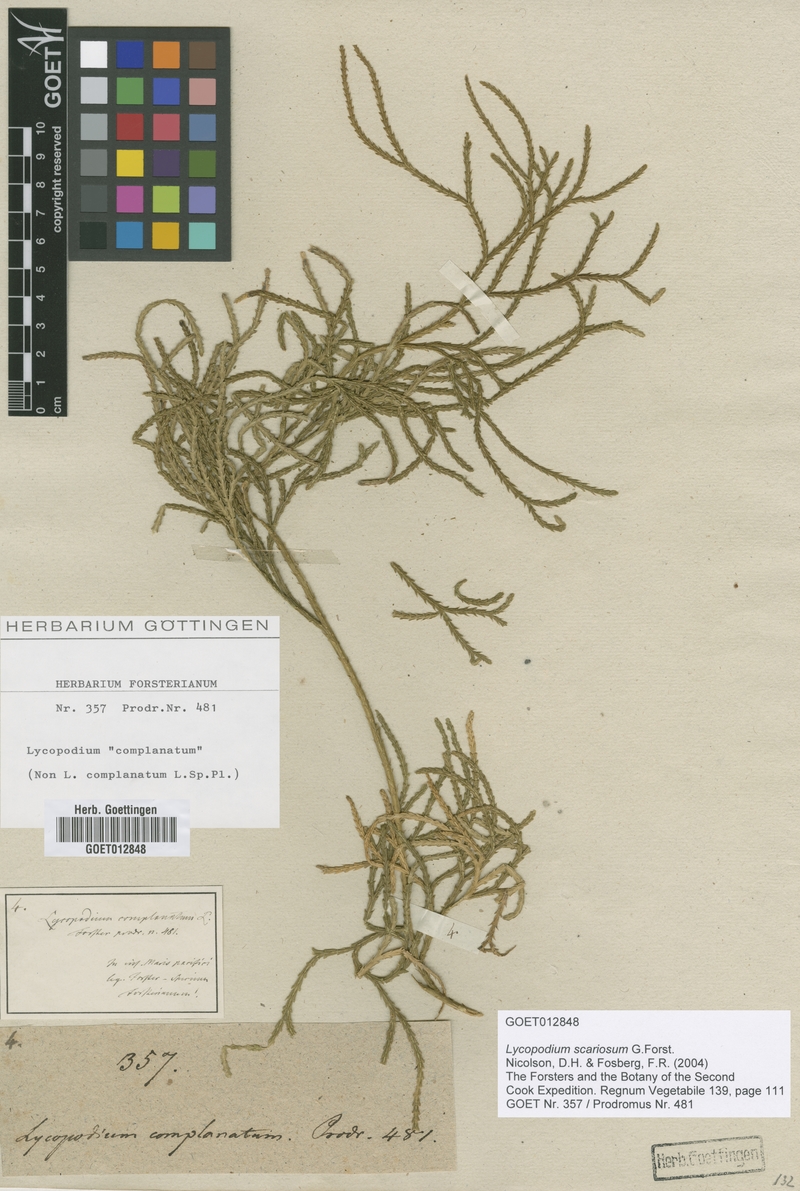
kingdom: Plantae
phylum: Tracheophyta
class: Lycopodiopsida
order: Lycopodiales
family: Lycopodiaceae
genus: Diphasium
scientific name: Diphasium scariosum
